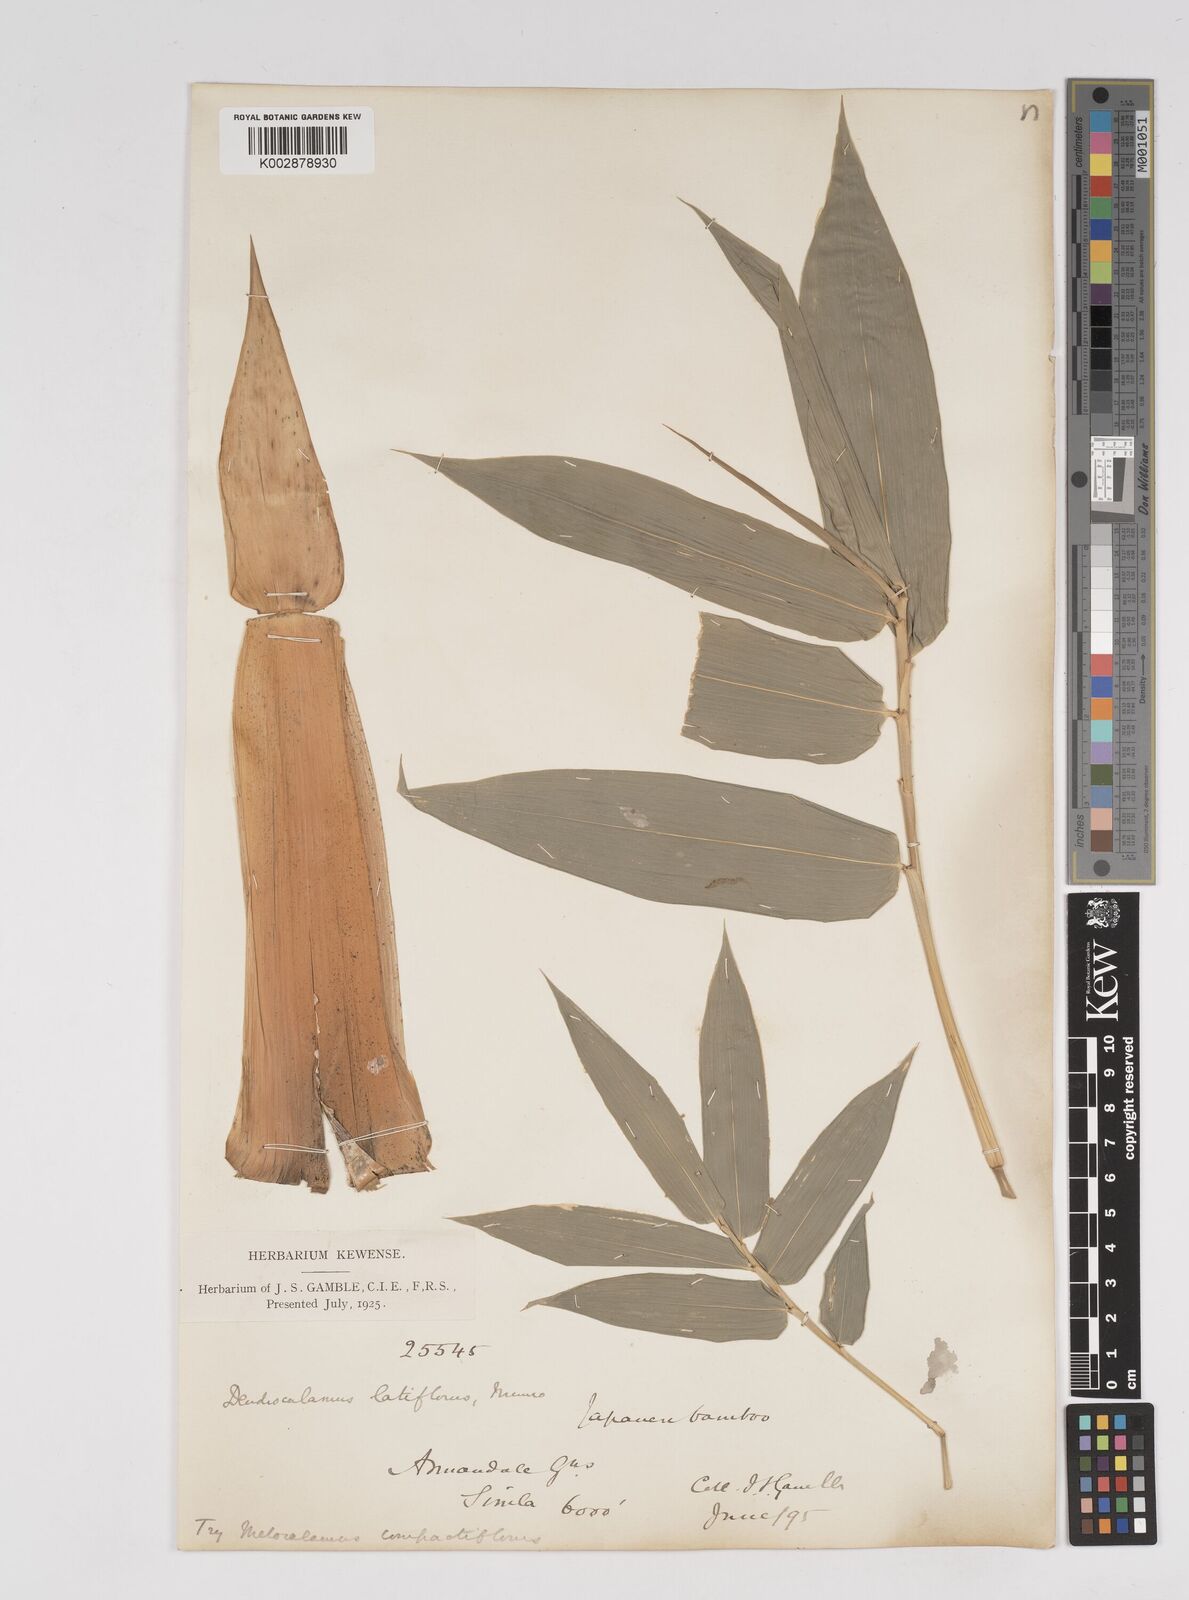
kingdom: Plantae
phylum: Tracheophyta
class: Liliopsida
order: Poales
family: Poaceae
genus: Dendrocalamus
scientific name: Dendrocalamus latiflorus
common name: Giant bamboo
